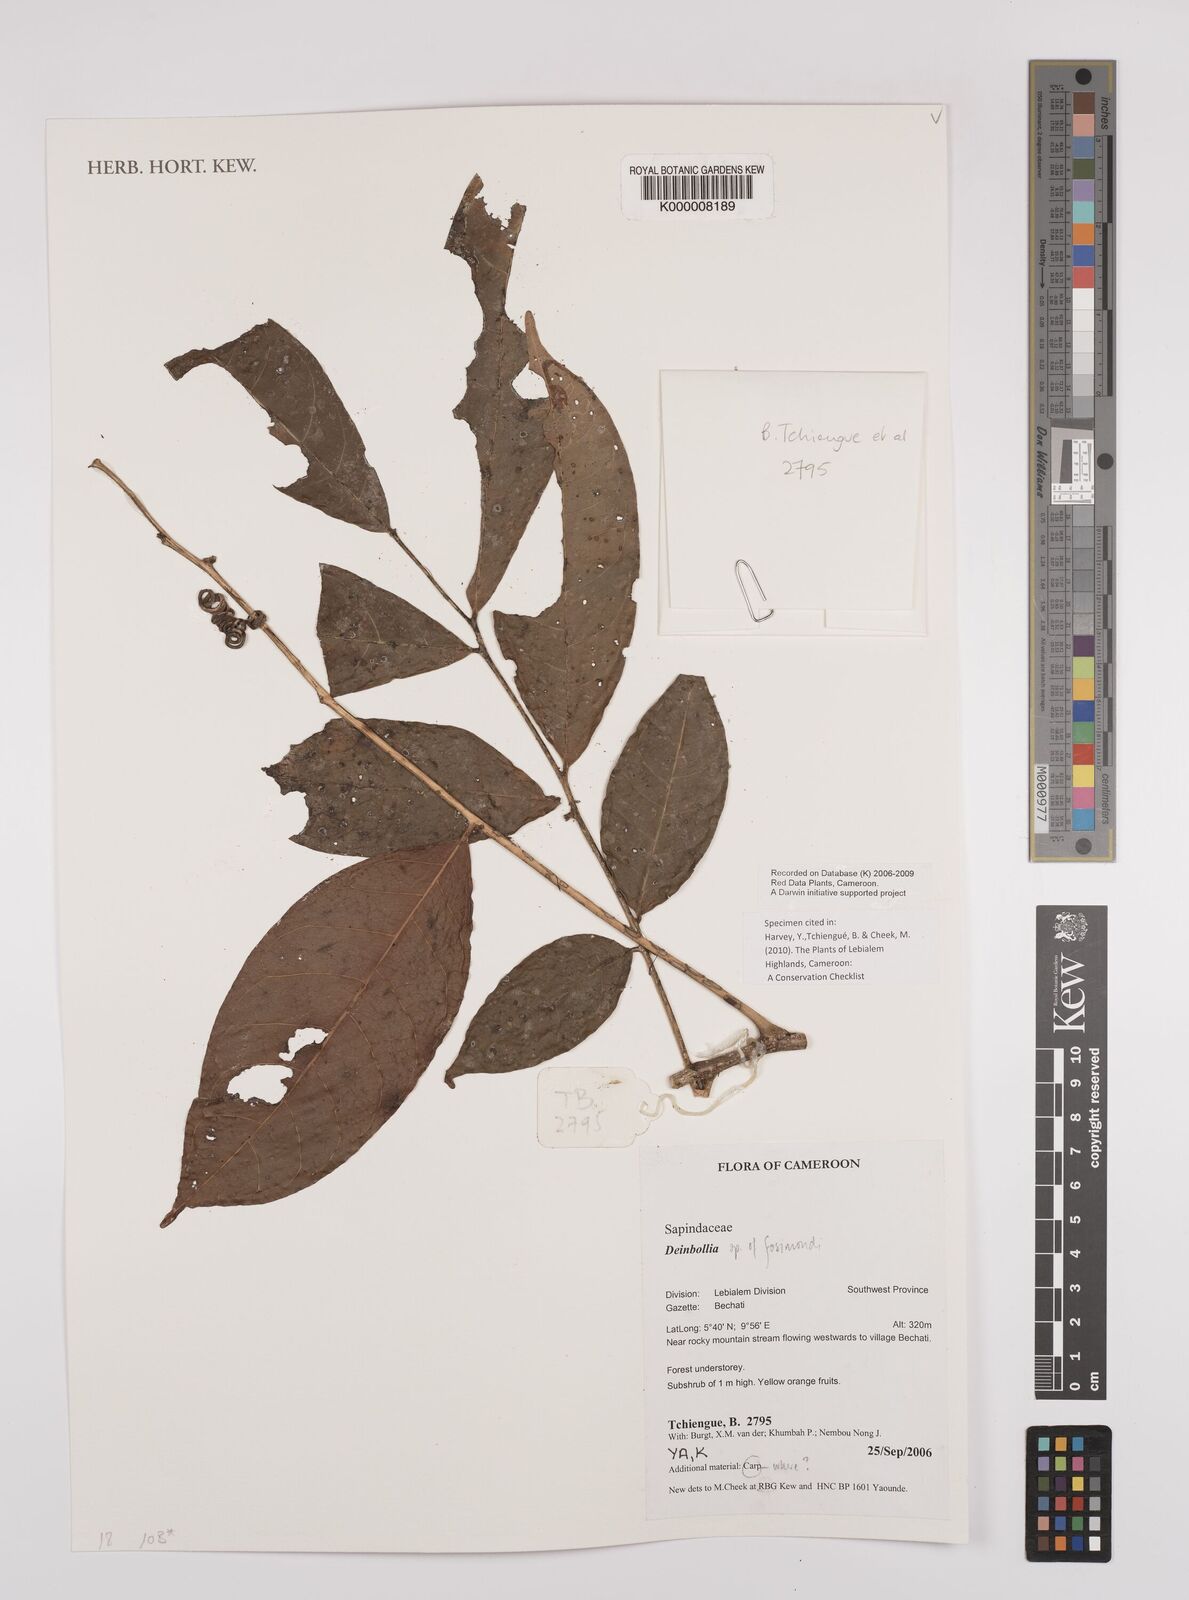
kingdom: Plantae
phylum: Tracheophyta
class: Magnoliopsida
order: Sapindales
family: Sapindaceae
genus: Deinbollia
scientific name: Deinbollia
